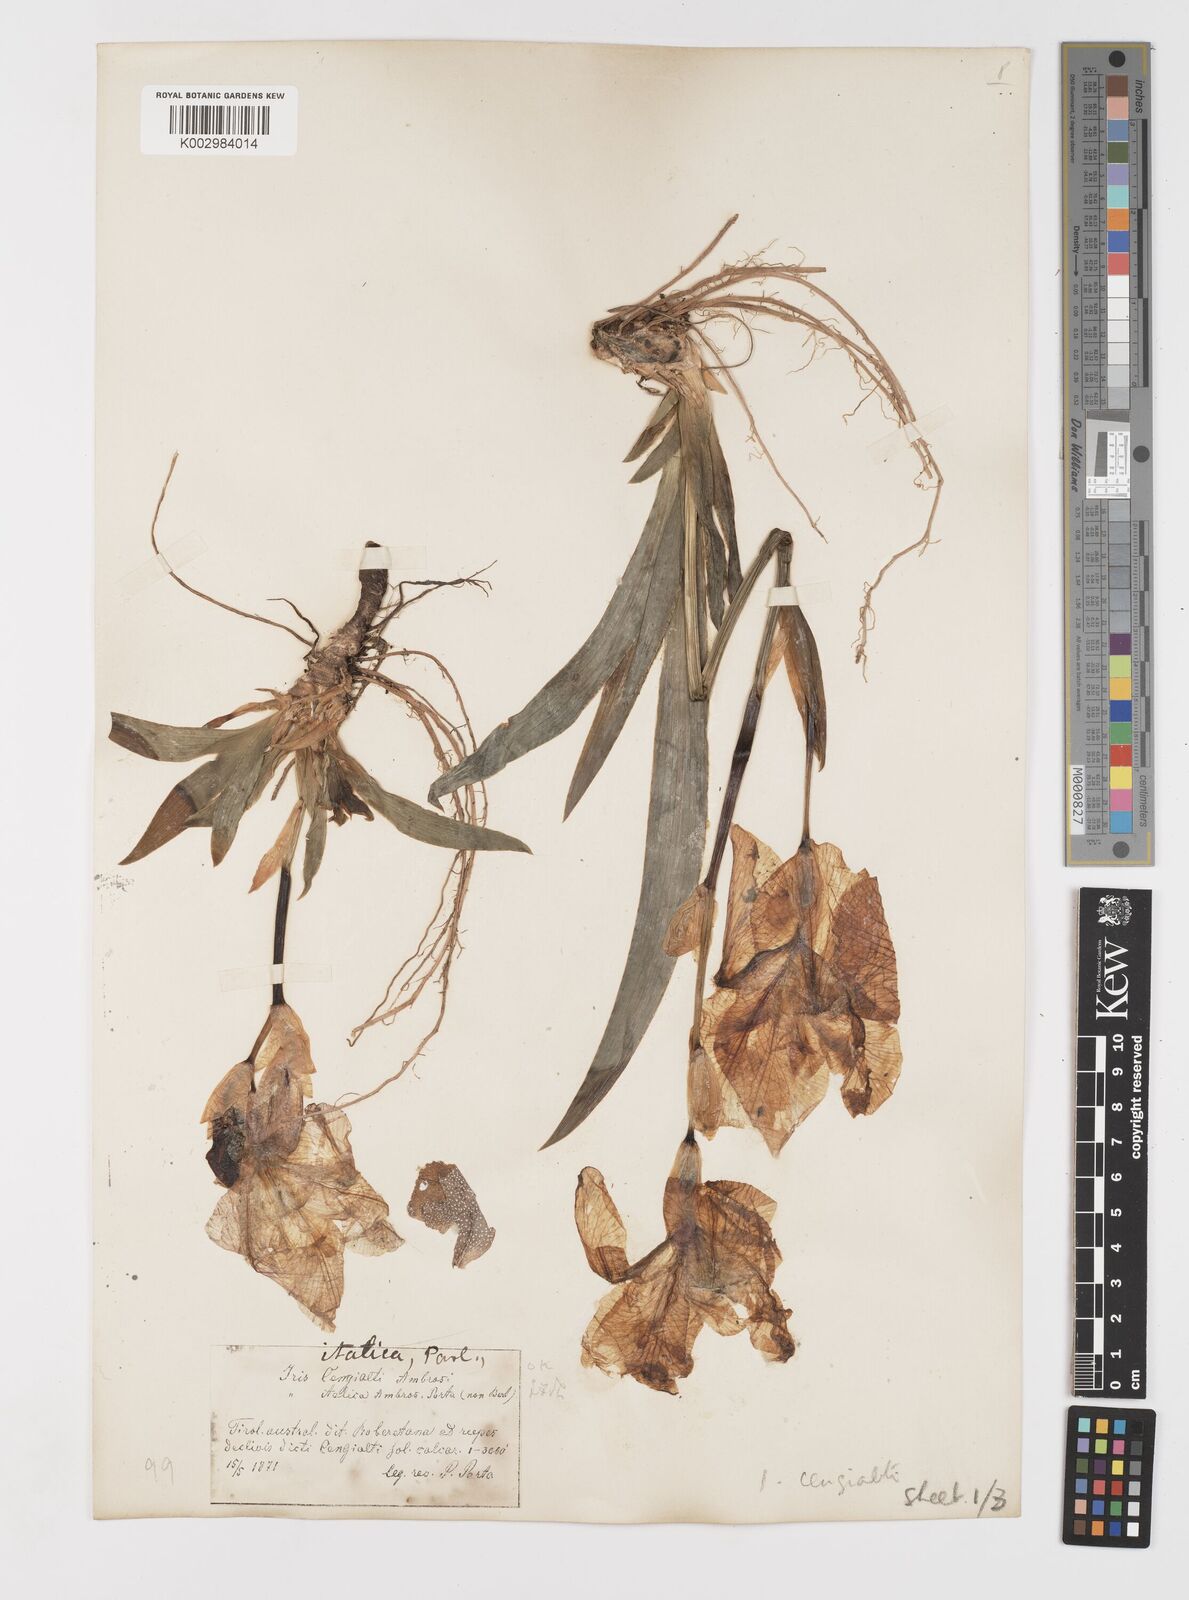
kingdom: Plantae
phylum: Tracheophyta
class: Liliopsida
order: Asparagales
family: Iridaceae
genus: Iris
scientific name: Iris pallida
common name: Sweet iris
